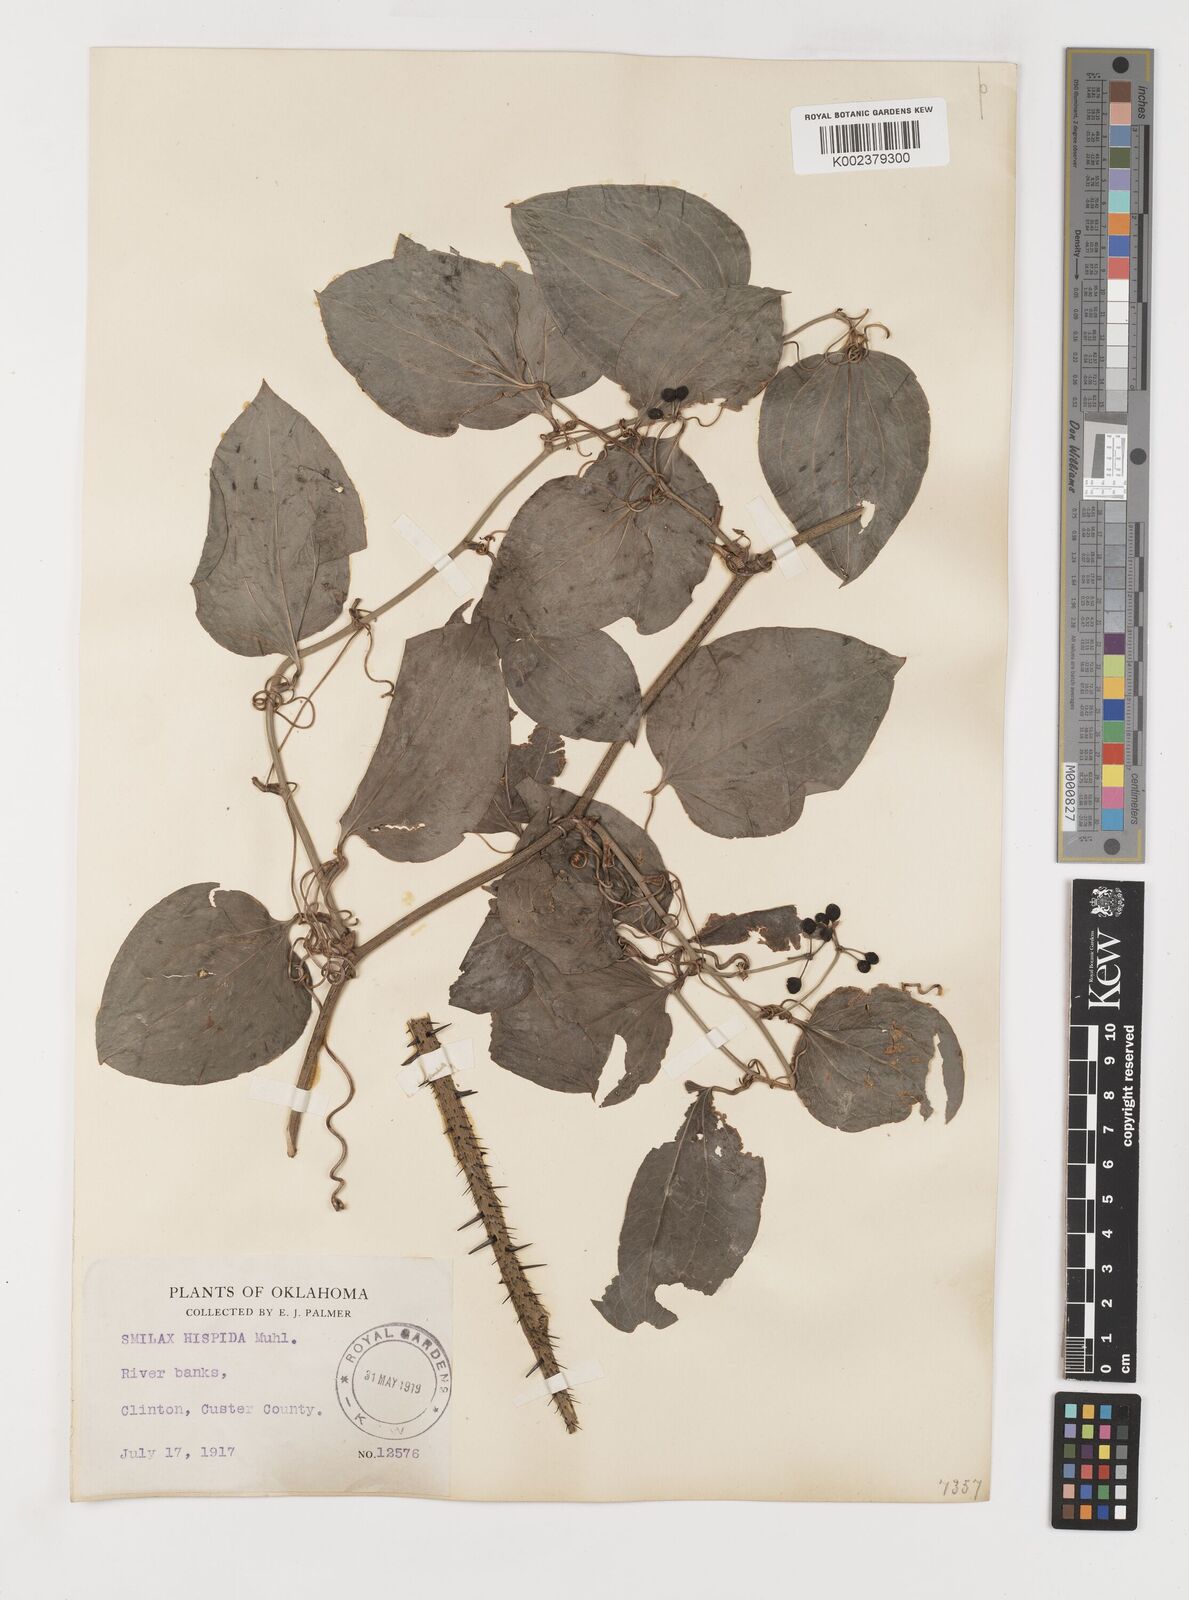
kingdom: Plantae
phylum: Tracheophyta
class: Liliopsida
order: Liliales
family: Smilacaceae
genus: Smilax
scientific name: Smilax tamnoides
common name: Hellfetter
